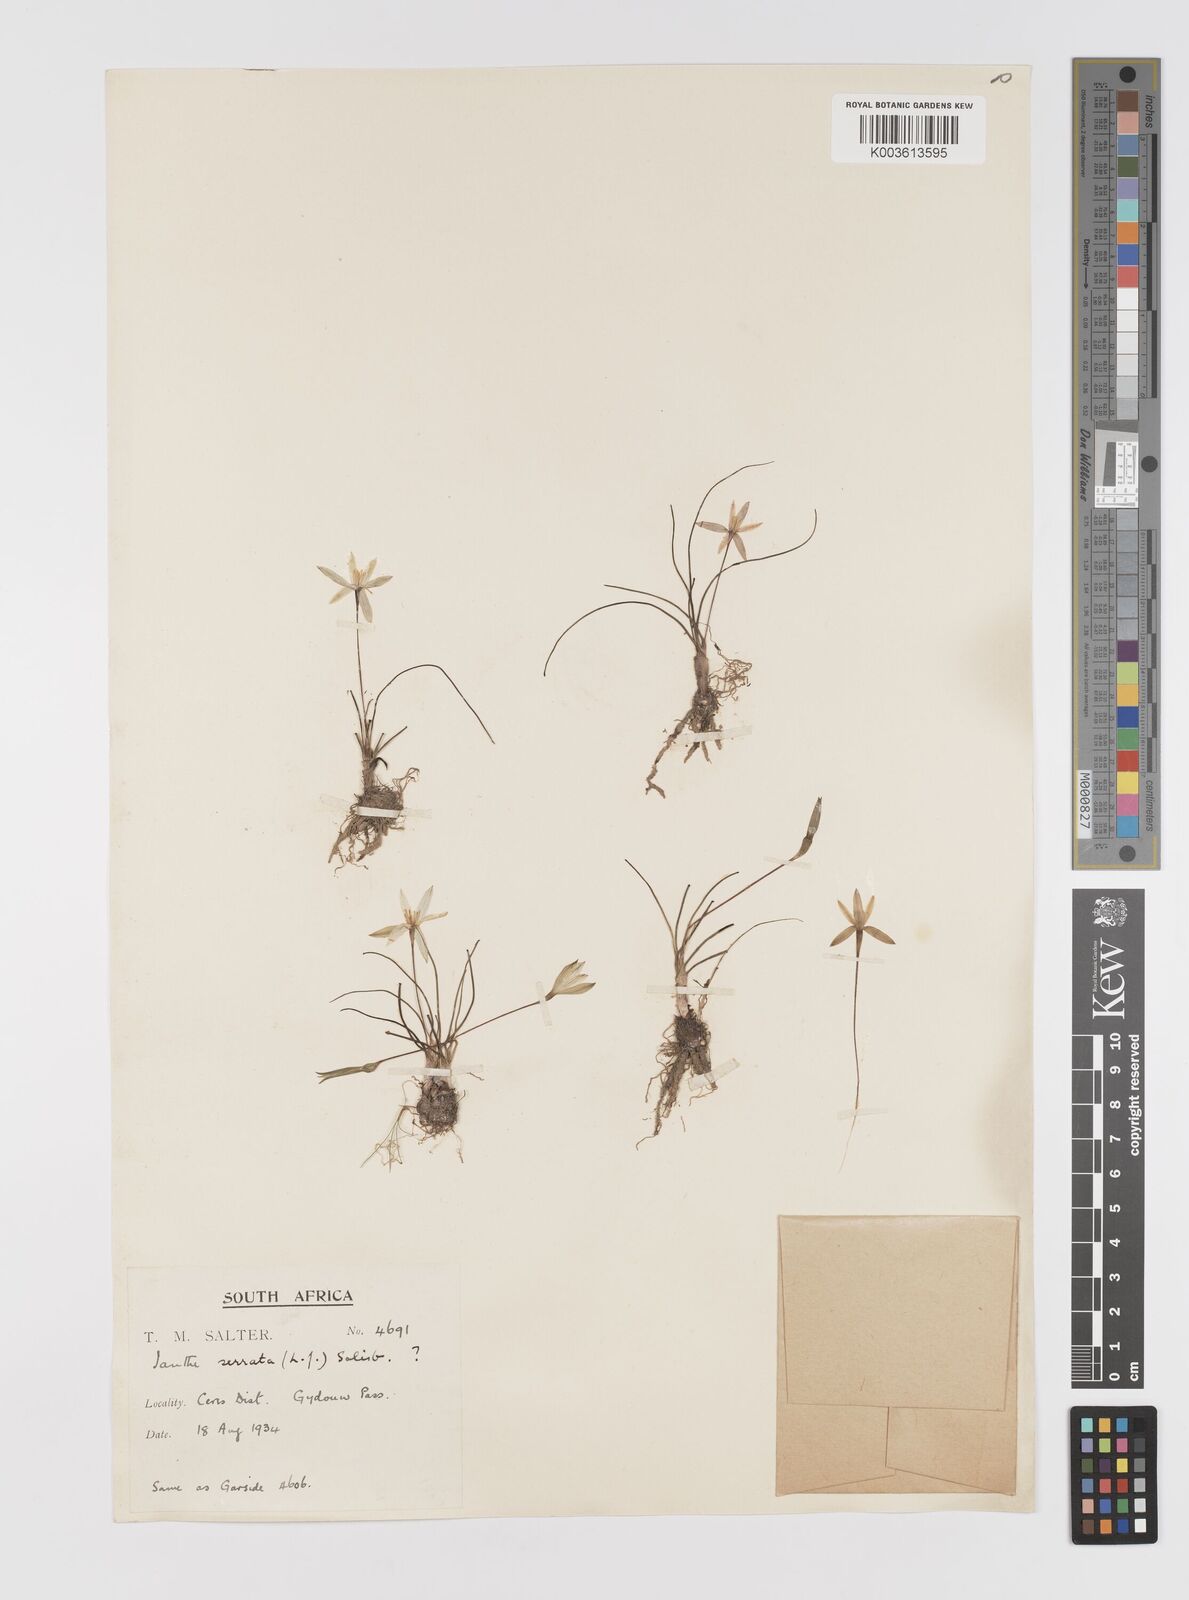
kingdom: Plantae
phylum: Tracheophyta
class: Liliopsida
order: Asparagales
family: Hypoxidaceae
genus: Pauridia
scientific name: Pauridia serrata
